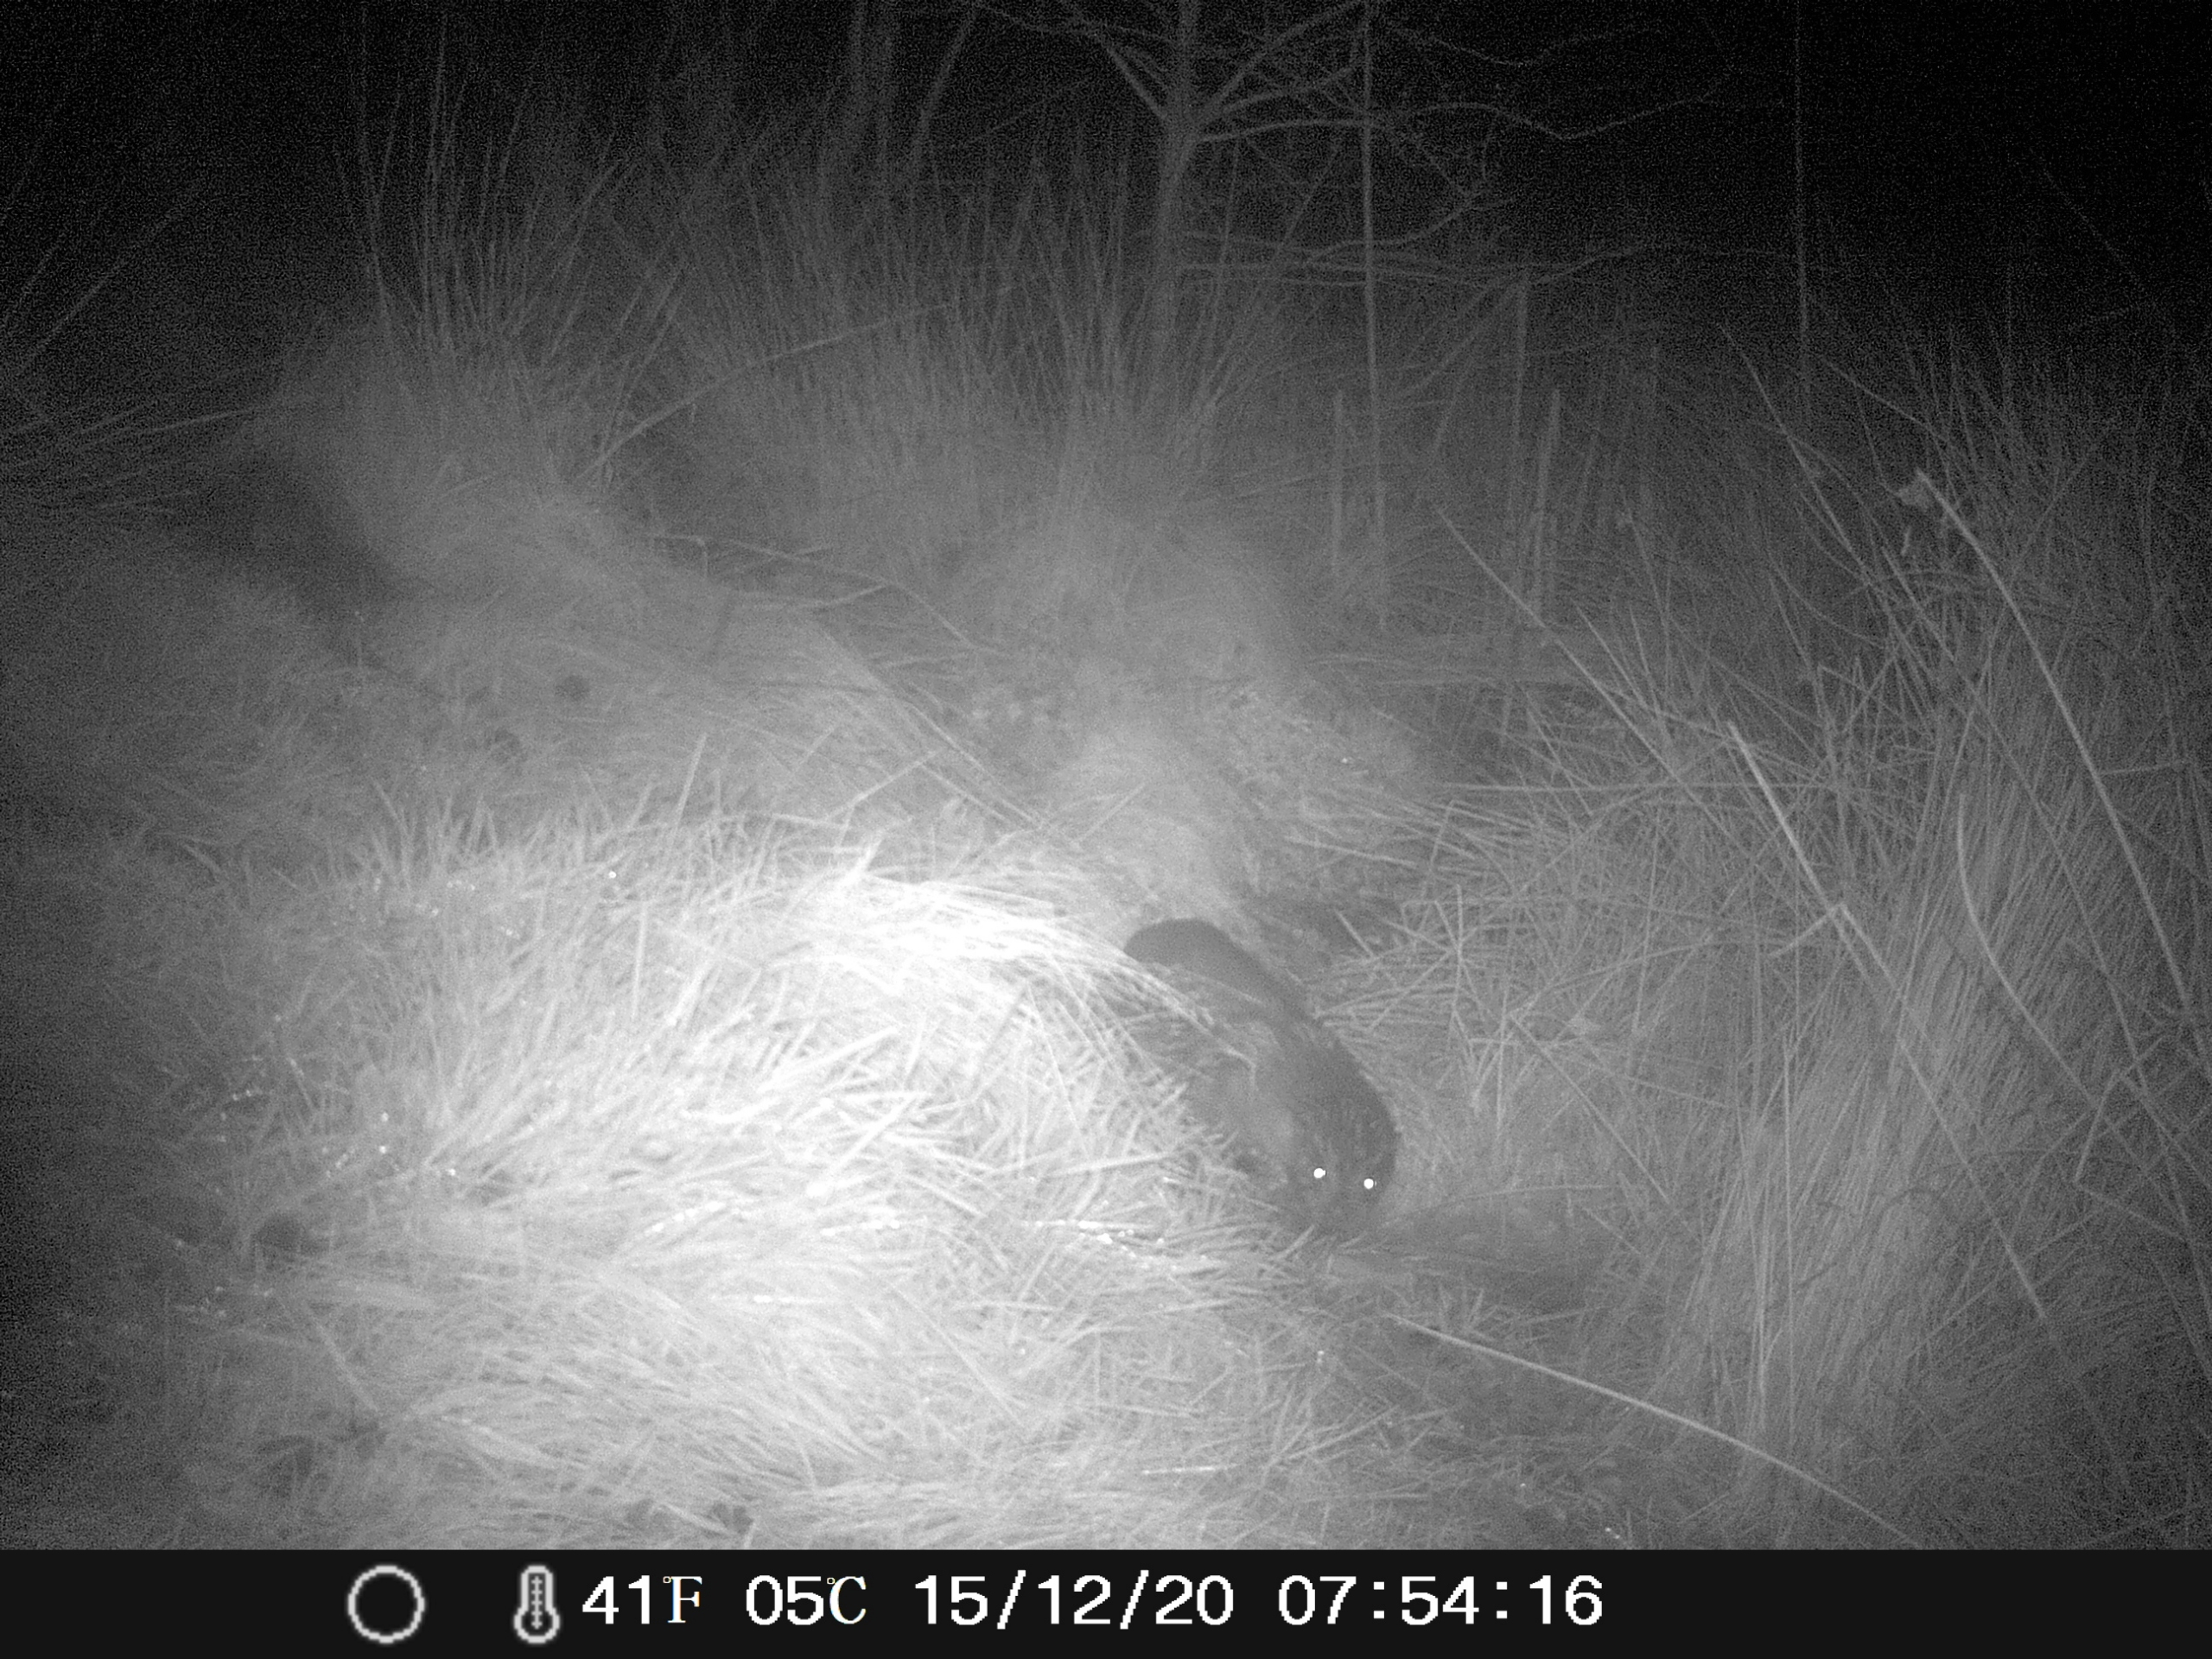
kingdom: Animalia
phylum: Chordata
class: Mammalia
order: Carnivora
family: Mustelidae
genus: Lutra
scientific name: Lutra lutra
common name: Odder
